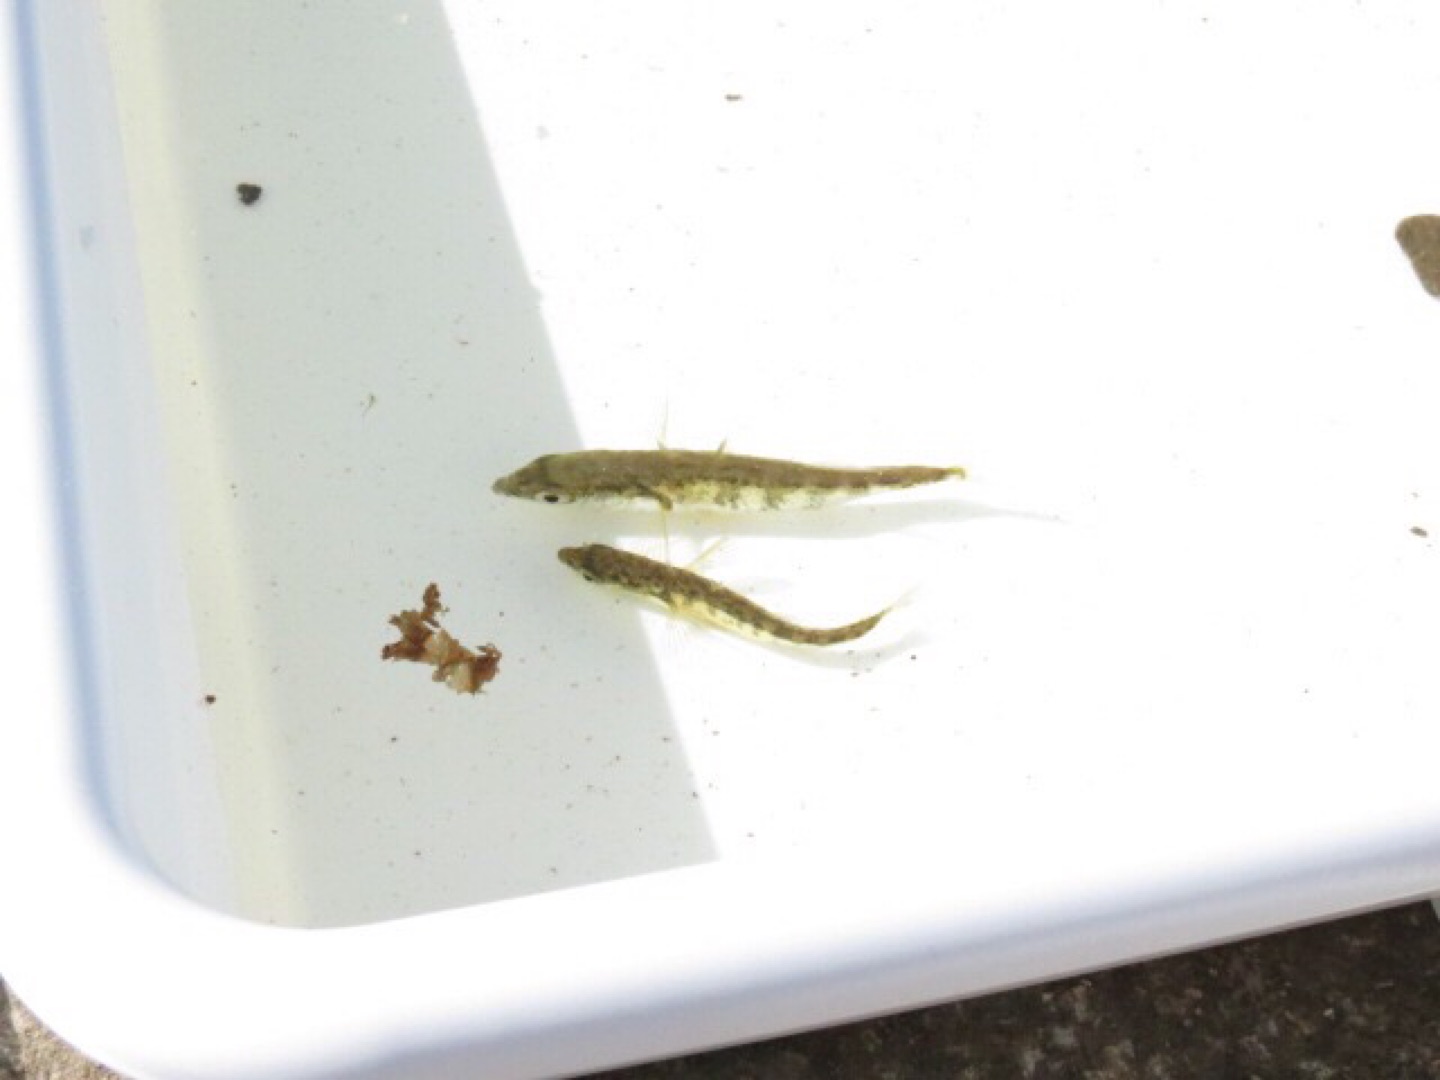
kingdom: Animalia
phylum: Chordata
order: Gasterosteiformes
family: Gasterosteidae
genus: Gasterosteus
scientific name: Gasterosteus aculeatus
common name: Trepigget hundestejle
